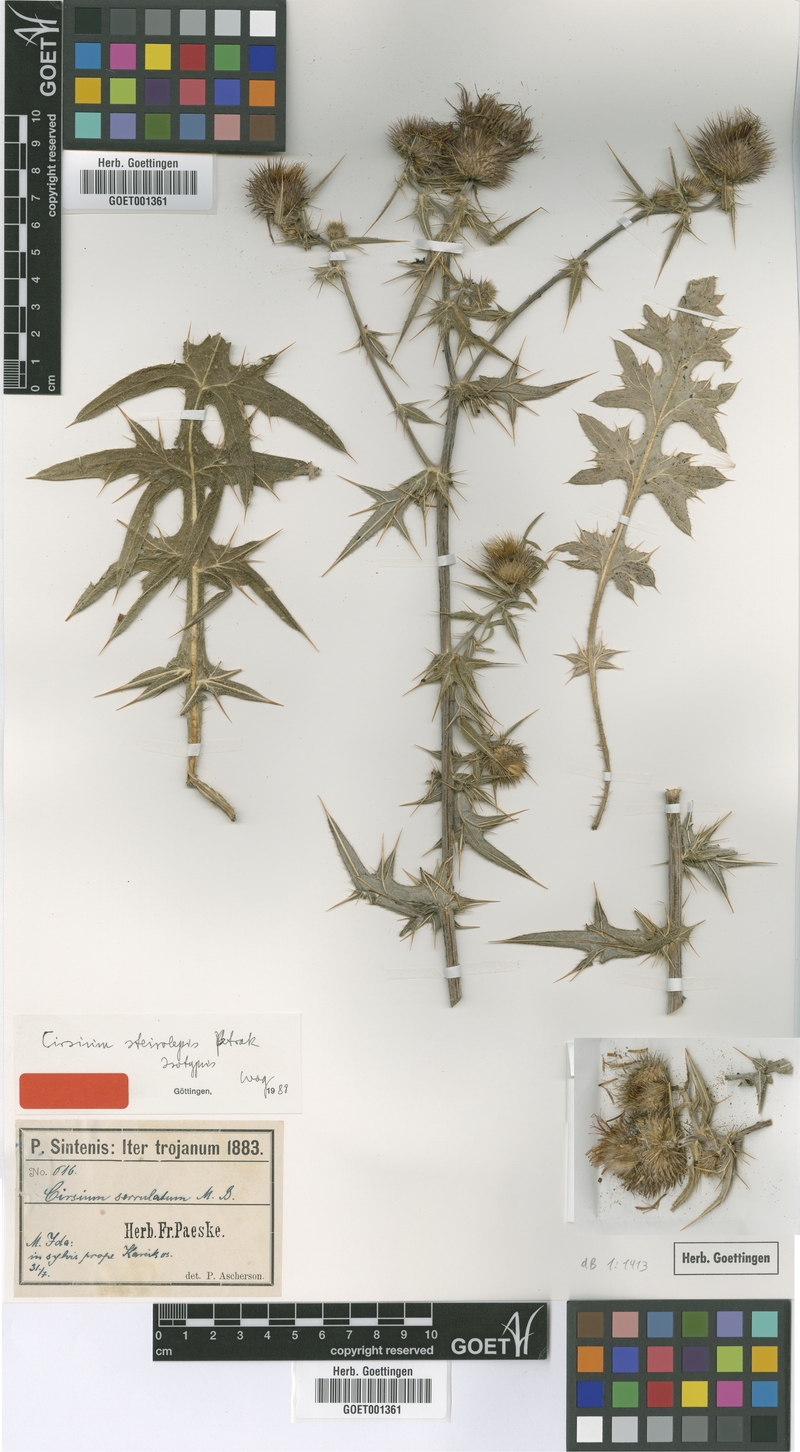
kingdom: Plantae
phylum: Tracheophyta
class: Magnoliopsida
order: Asterales
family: Asteraceae
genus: Lophiolepis
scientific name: Lophiolepis steirolepis
